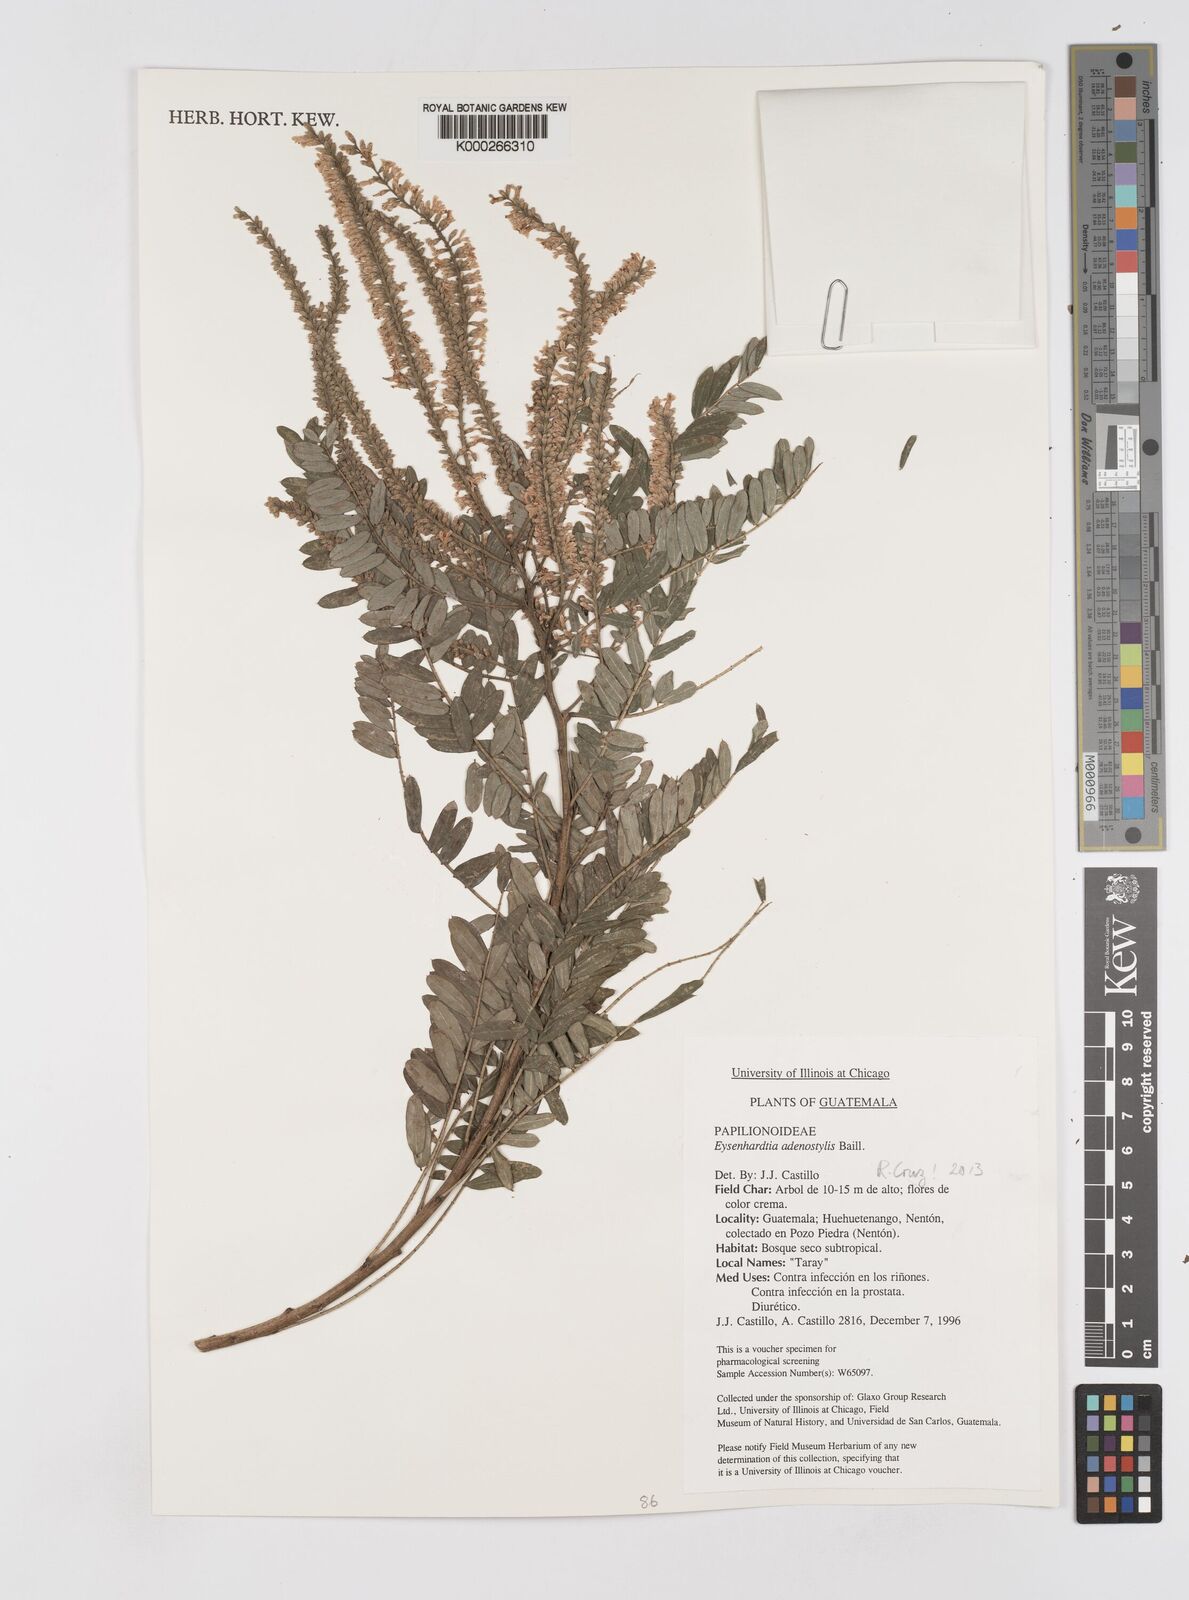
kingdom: Plantae
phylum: Tracheophyta
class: Magnoliopsida
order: Fabales
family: Fabaceae
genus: Eysenhardtia
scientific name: Eysenhardtia adenostylis
